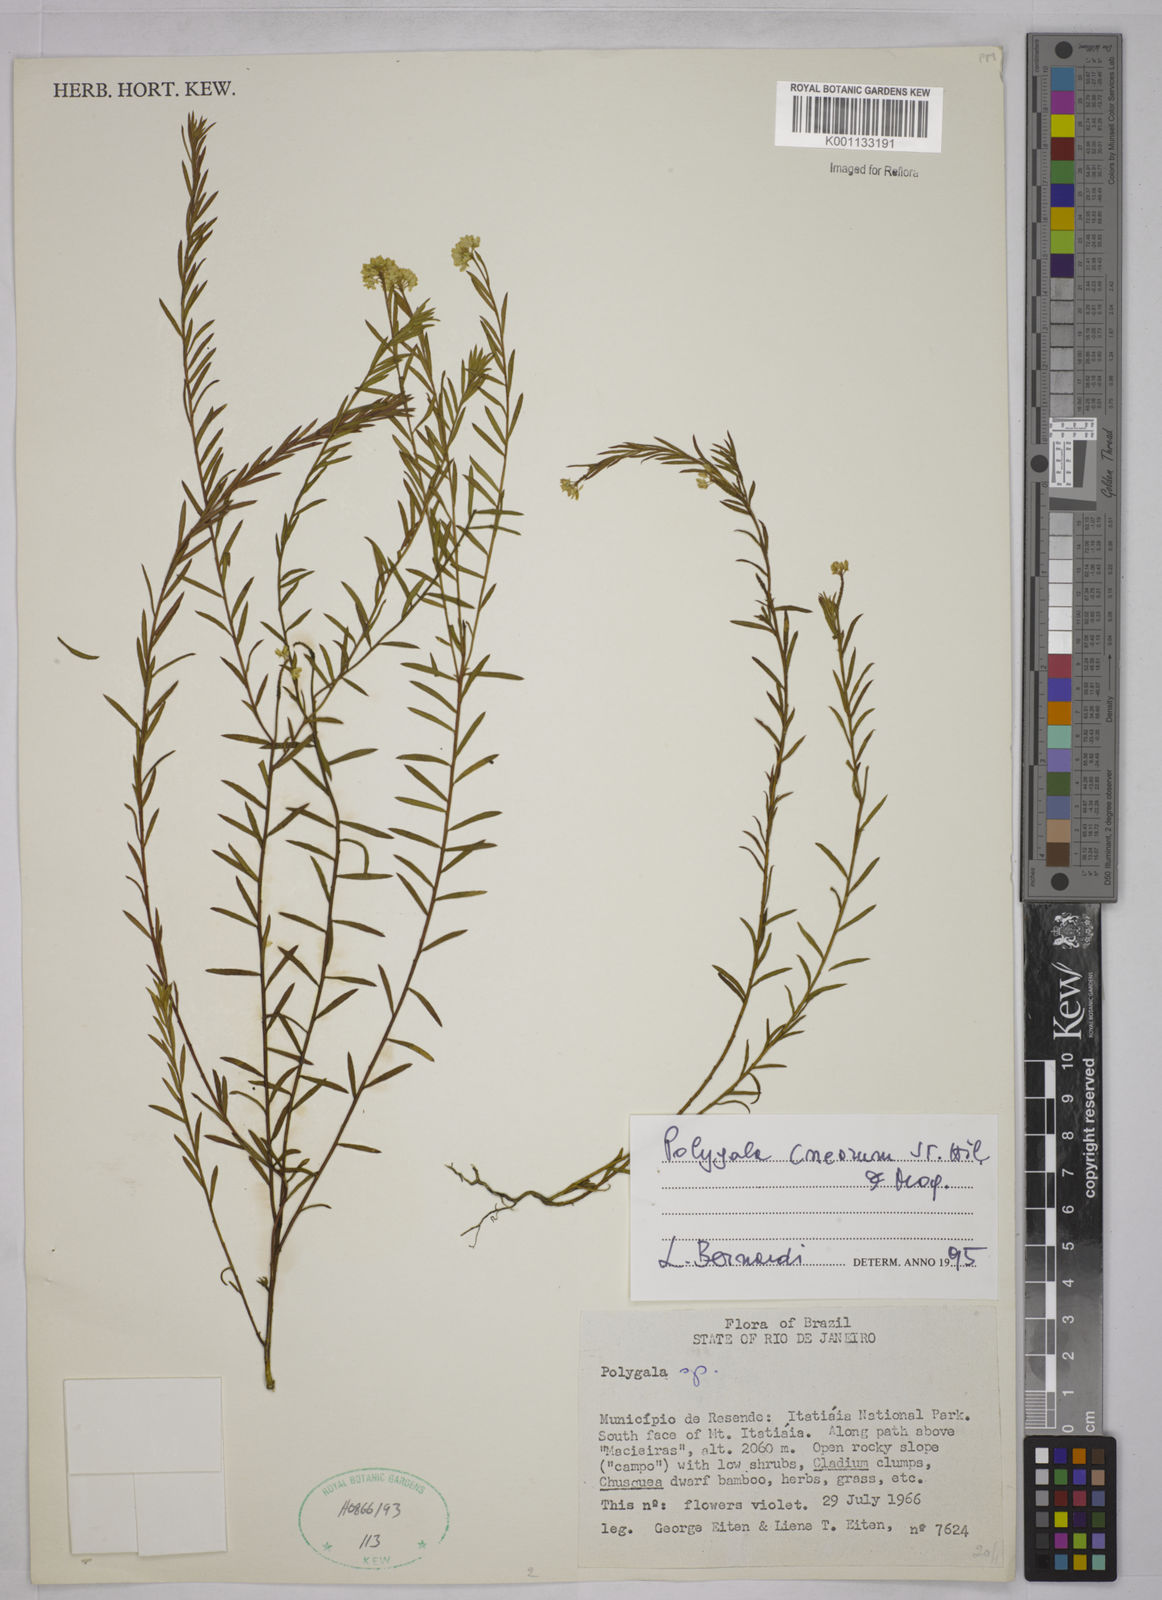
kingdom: Plantae
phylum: Tracheophyta
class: Magnoliopsida
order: Fabales
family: Polygalaceae
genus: Polygala
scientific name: Polygala cneorum
